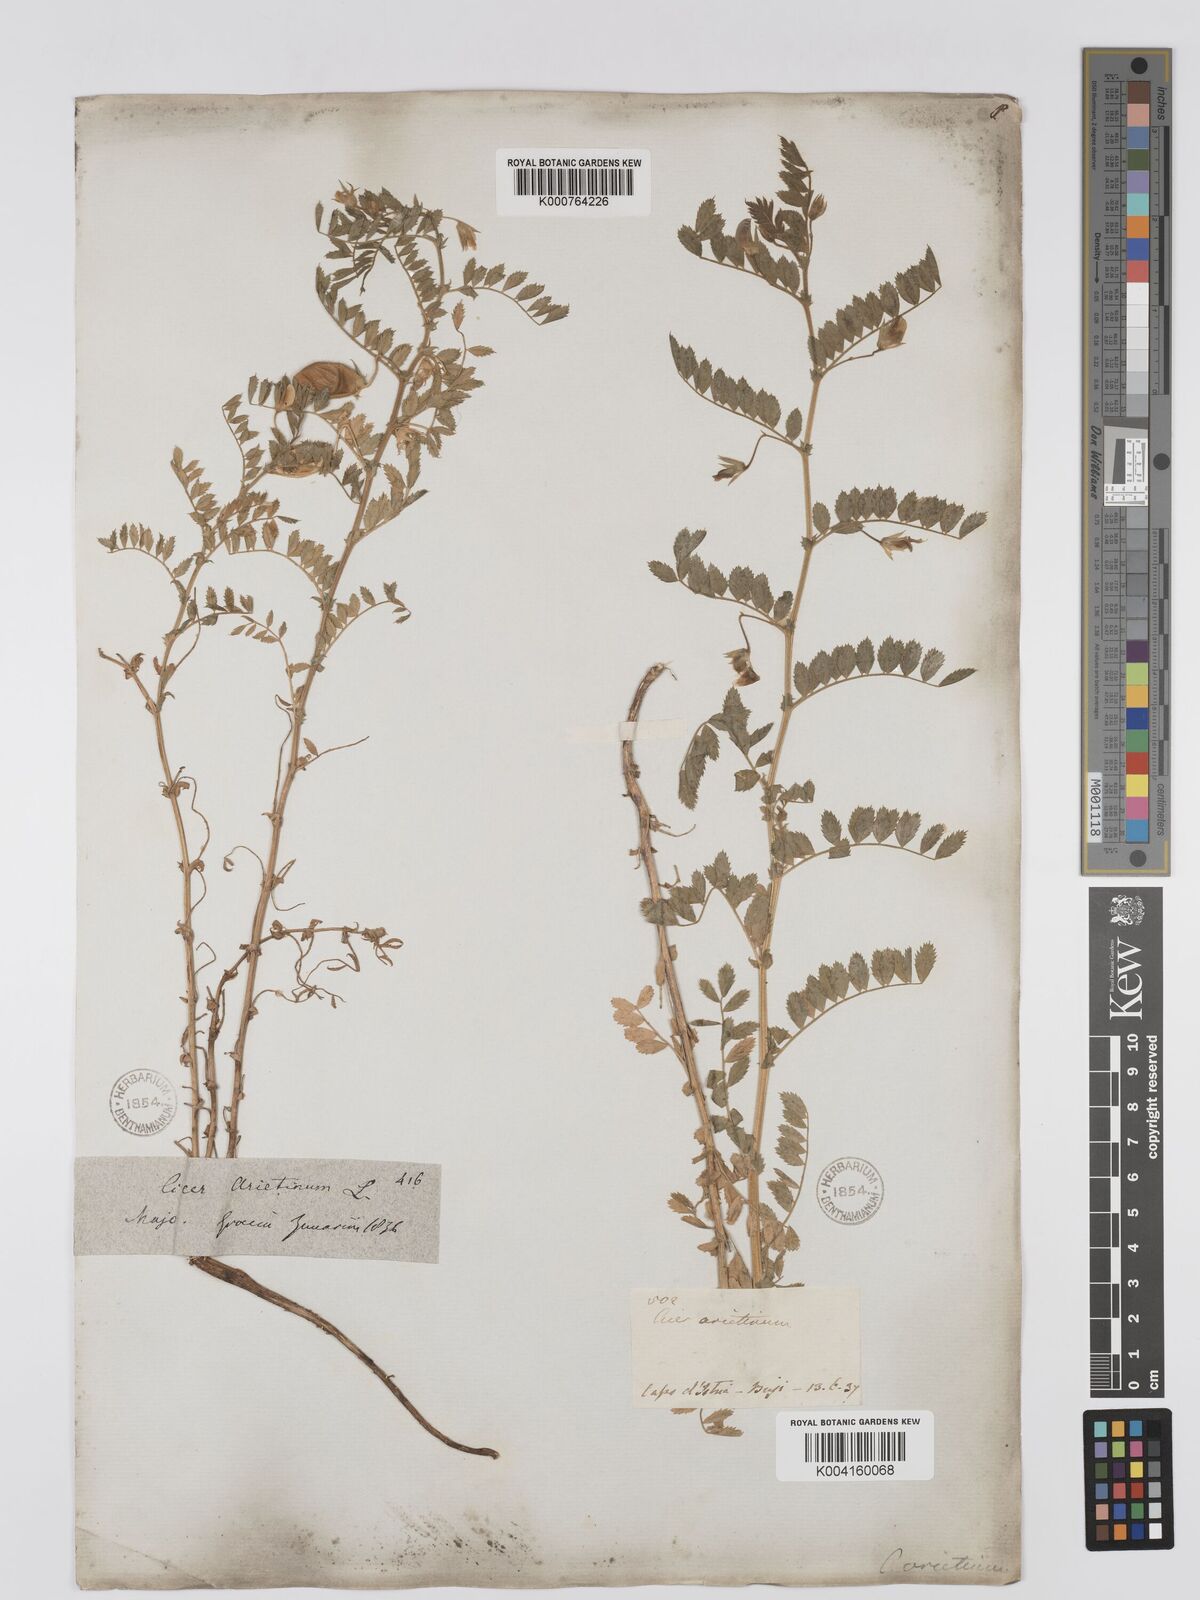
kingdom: Plantae
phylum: Tracheophyta
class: Magnoliopsida
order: Fabales
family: Fabaceae
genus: Baphia
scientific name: Baphia cordifolia
